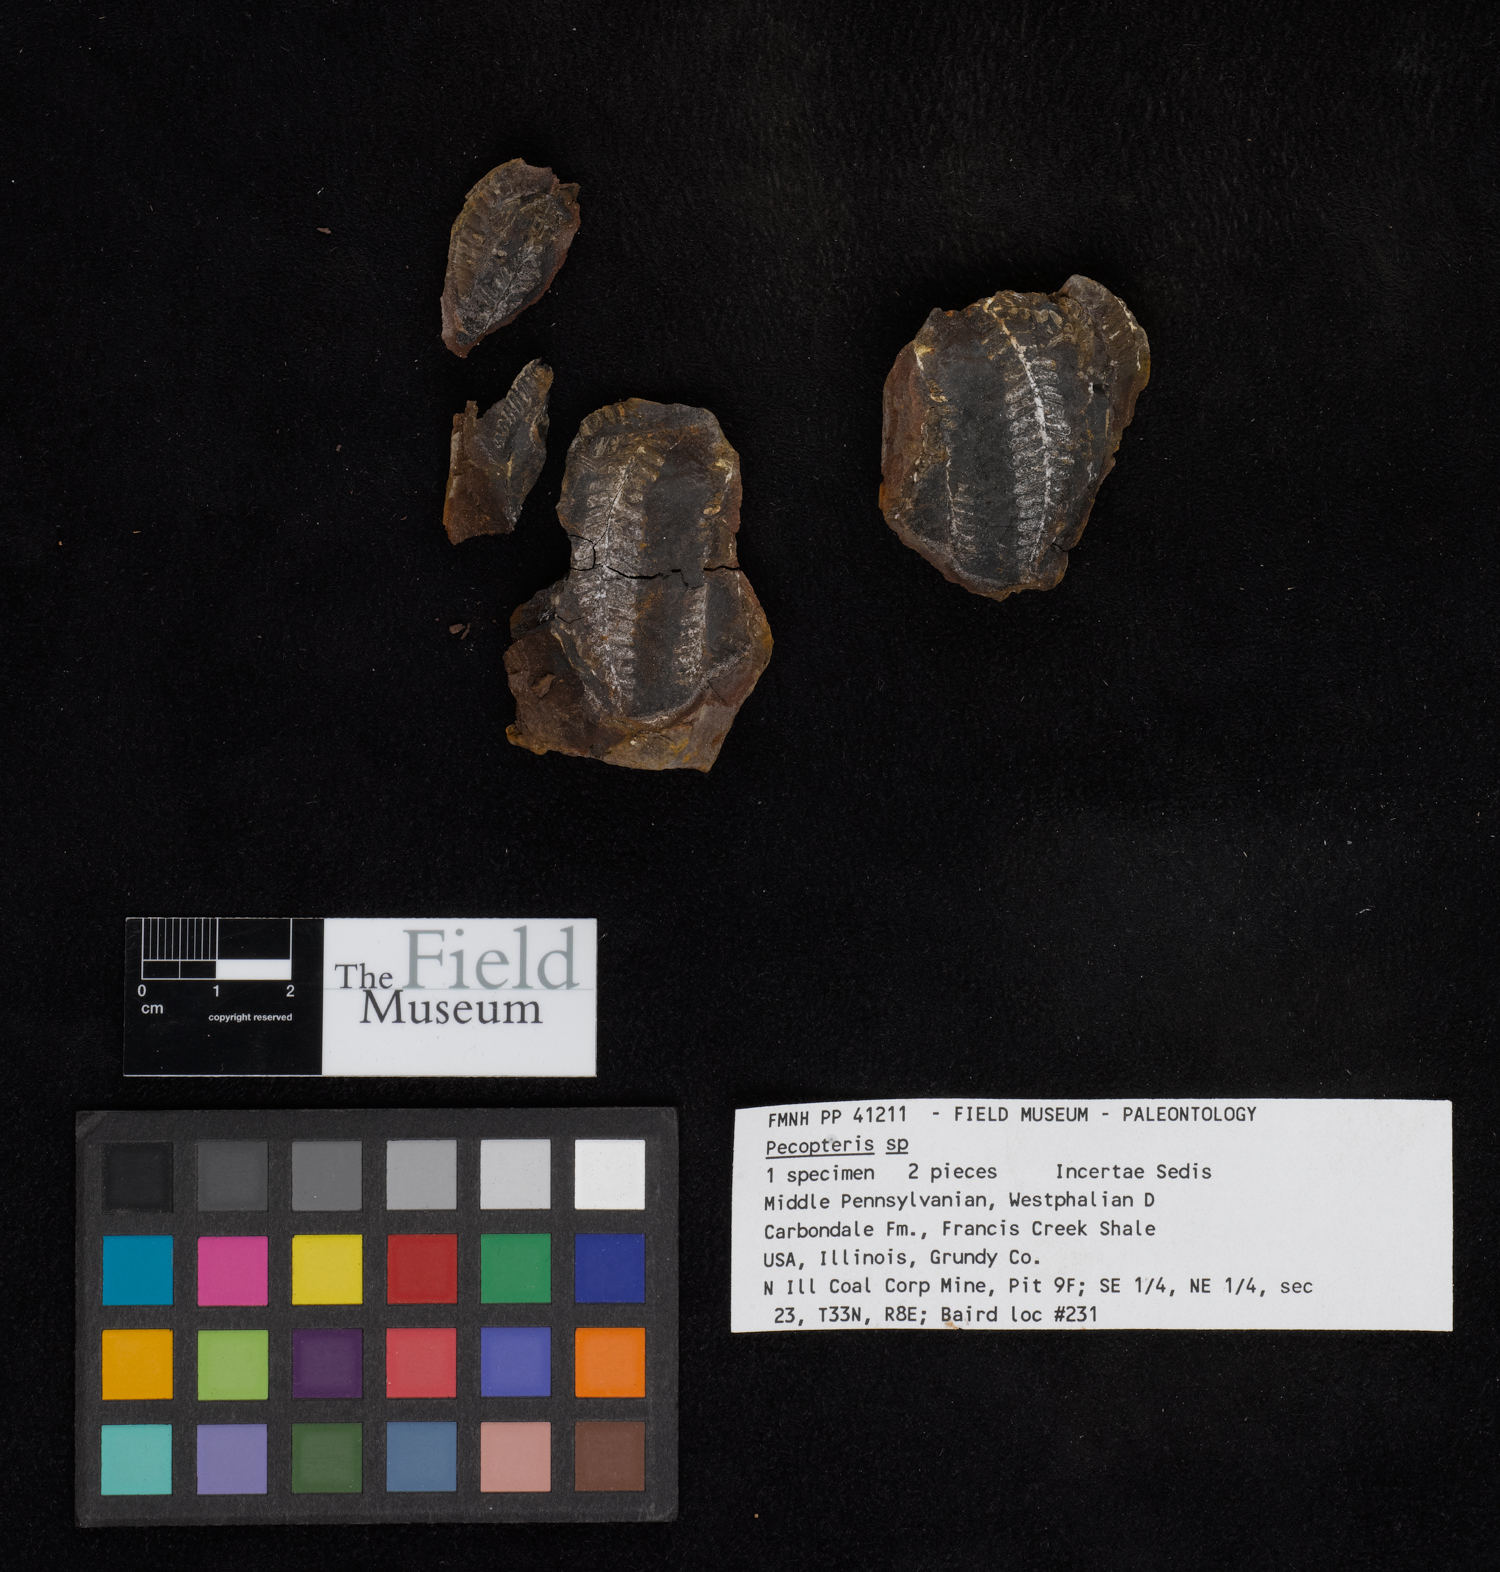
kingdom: Plantae
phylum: Tracheophyta
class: Polypodiopsida
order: Marattiales
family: Asterothecaceae
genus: Pecopteris
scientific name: Pecopteris
